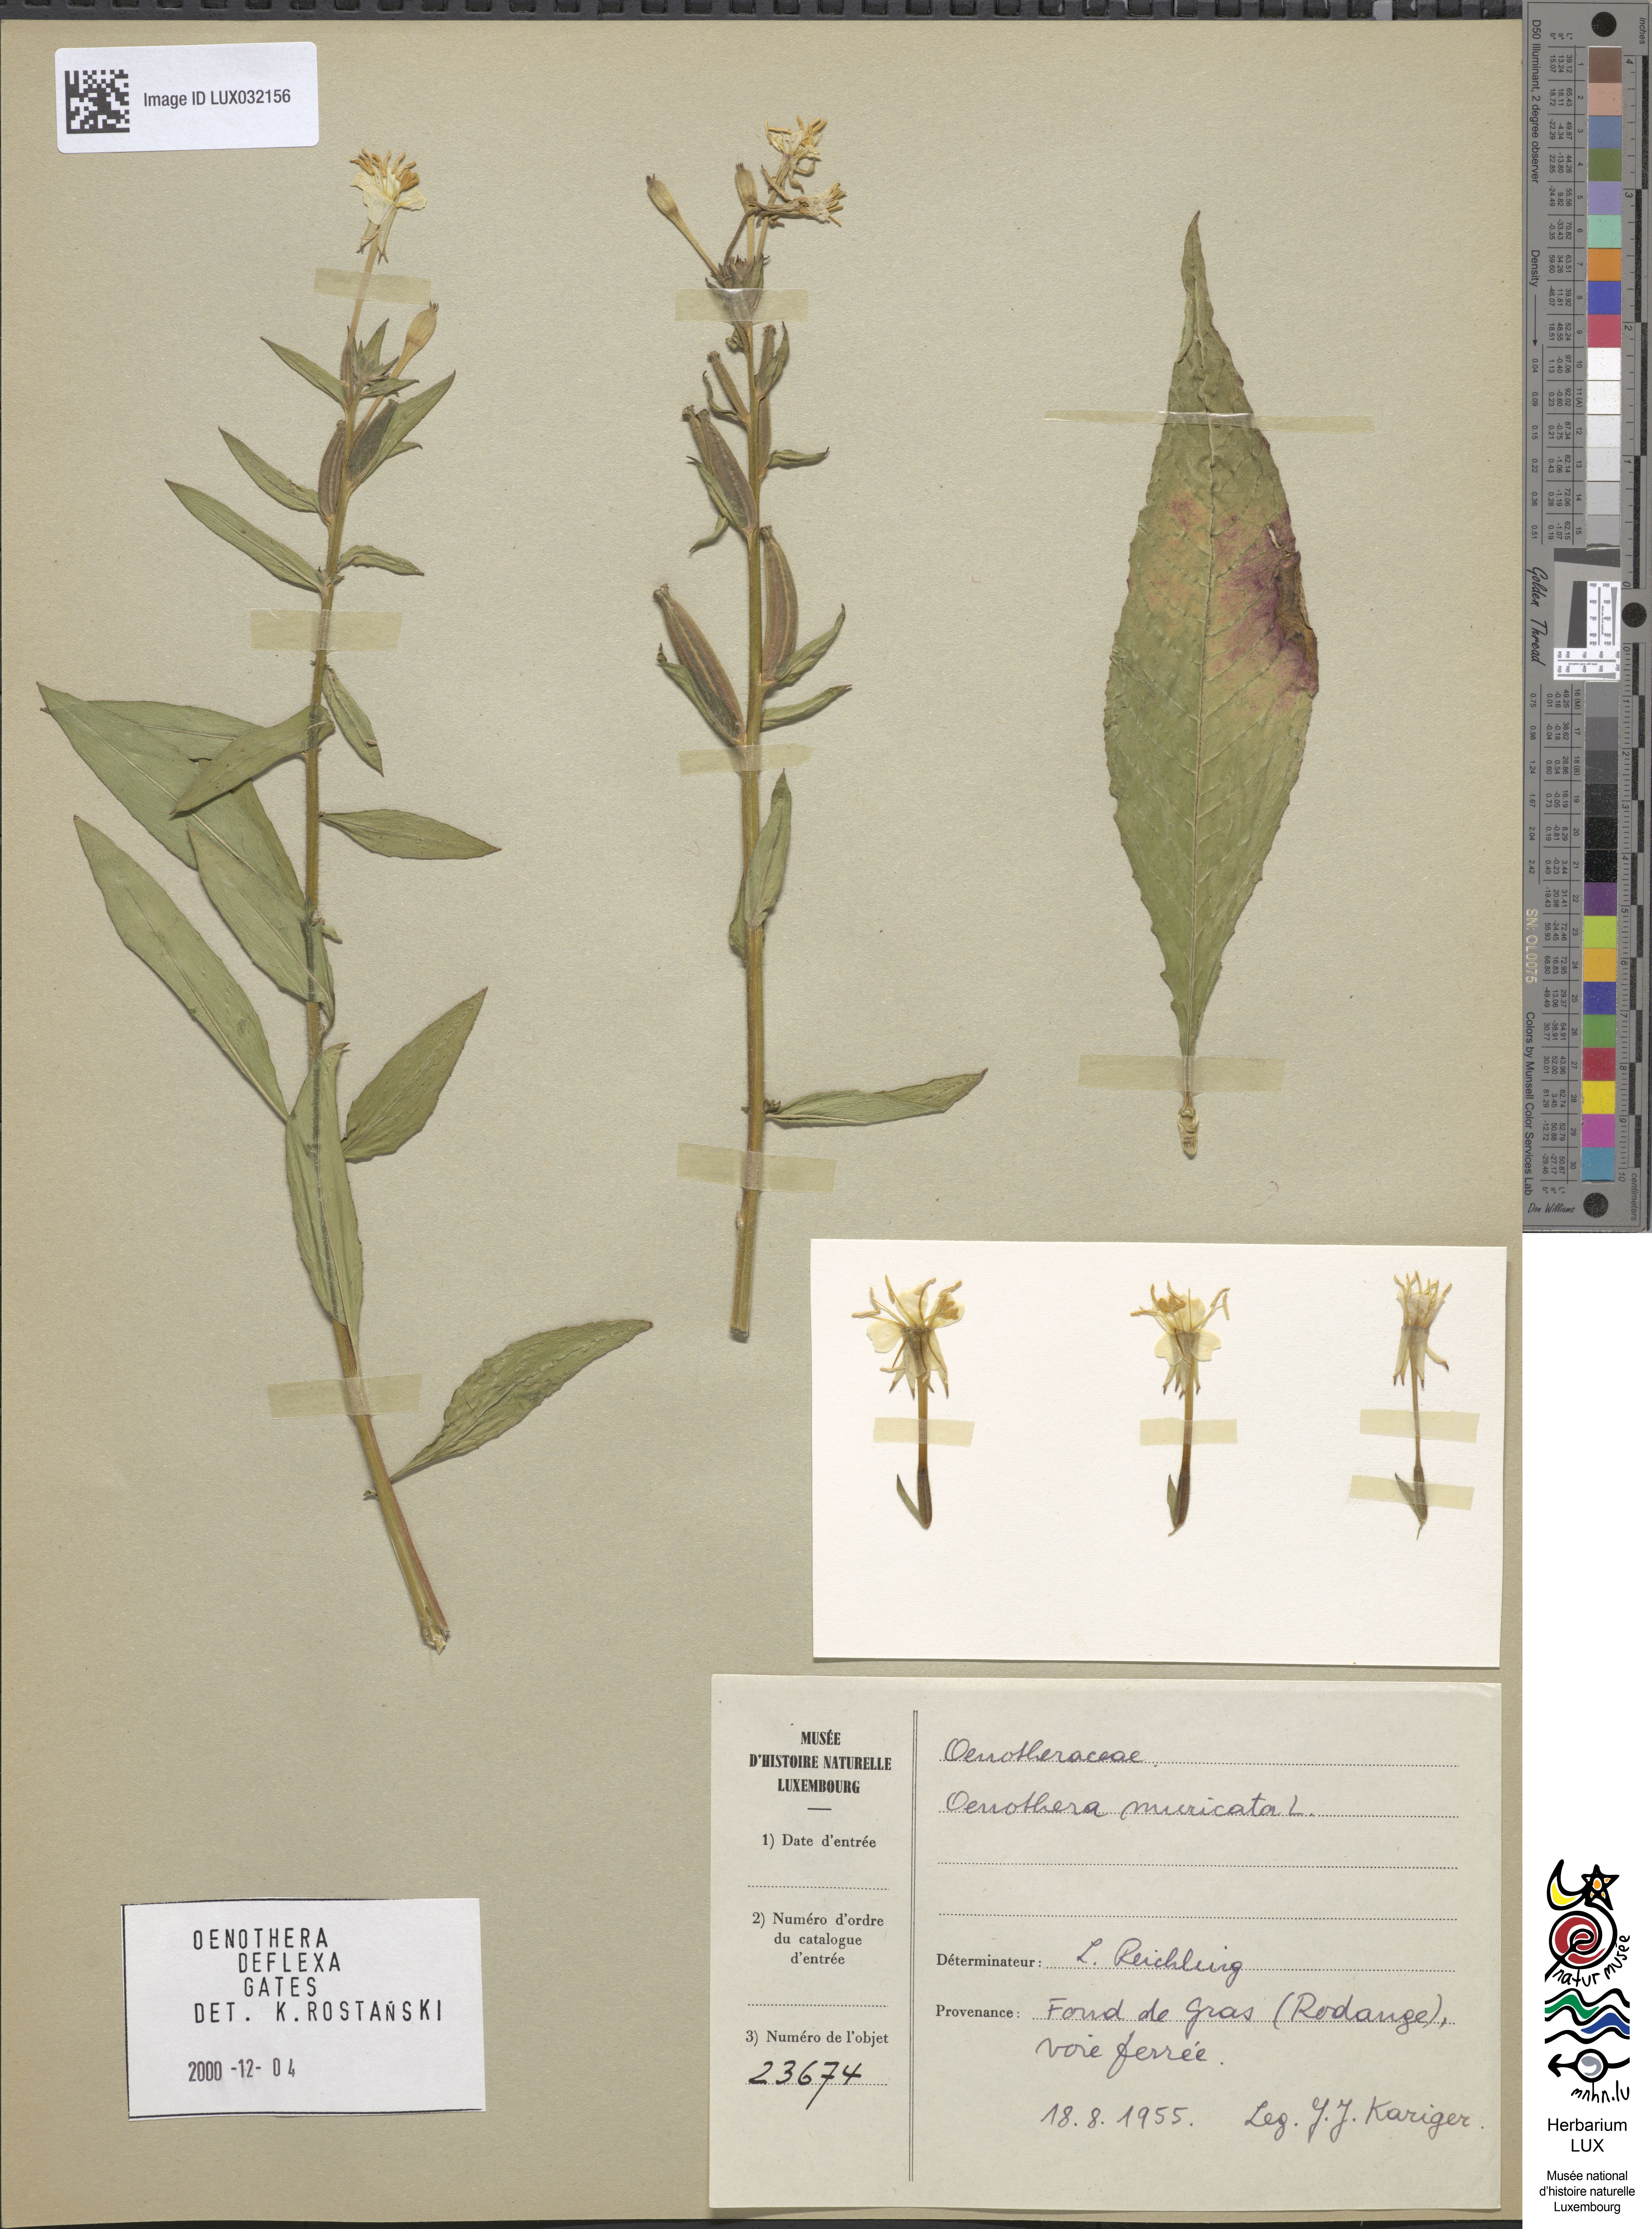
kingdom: Plantae
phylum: Tracheophyta
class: Magnoliopsida
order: Myrtales
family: Onagraceae
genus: Oenothera
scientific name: Oenothera parviflora
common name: Least evening-primrose
